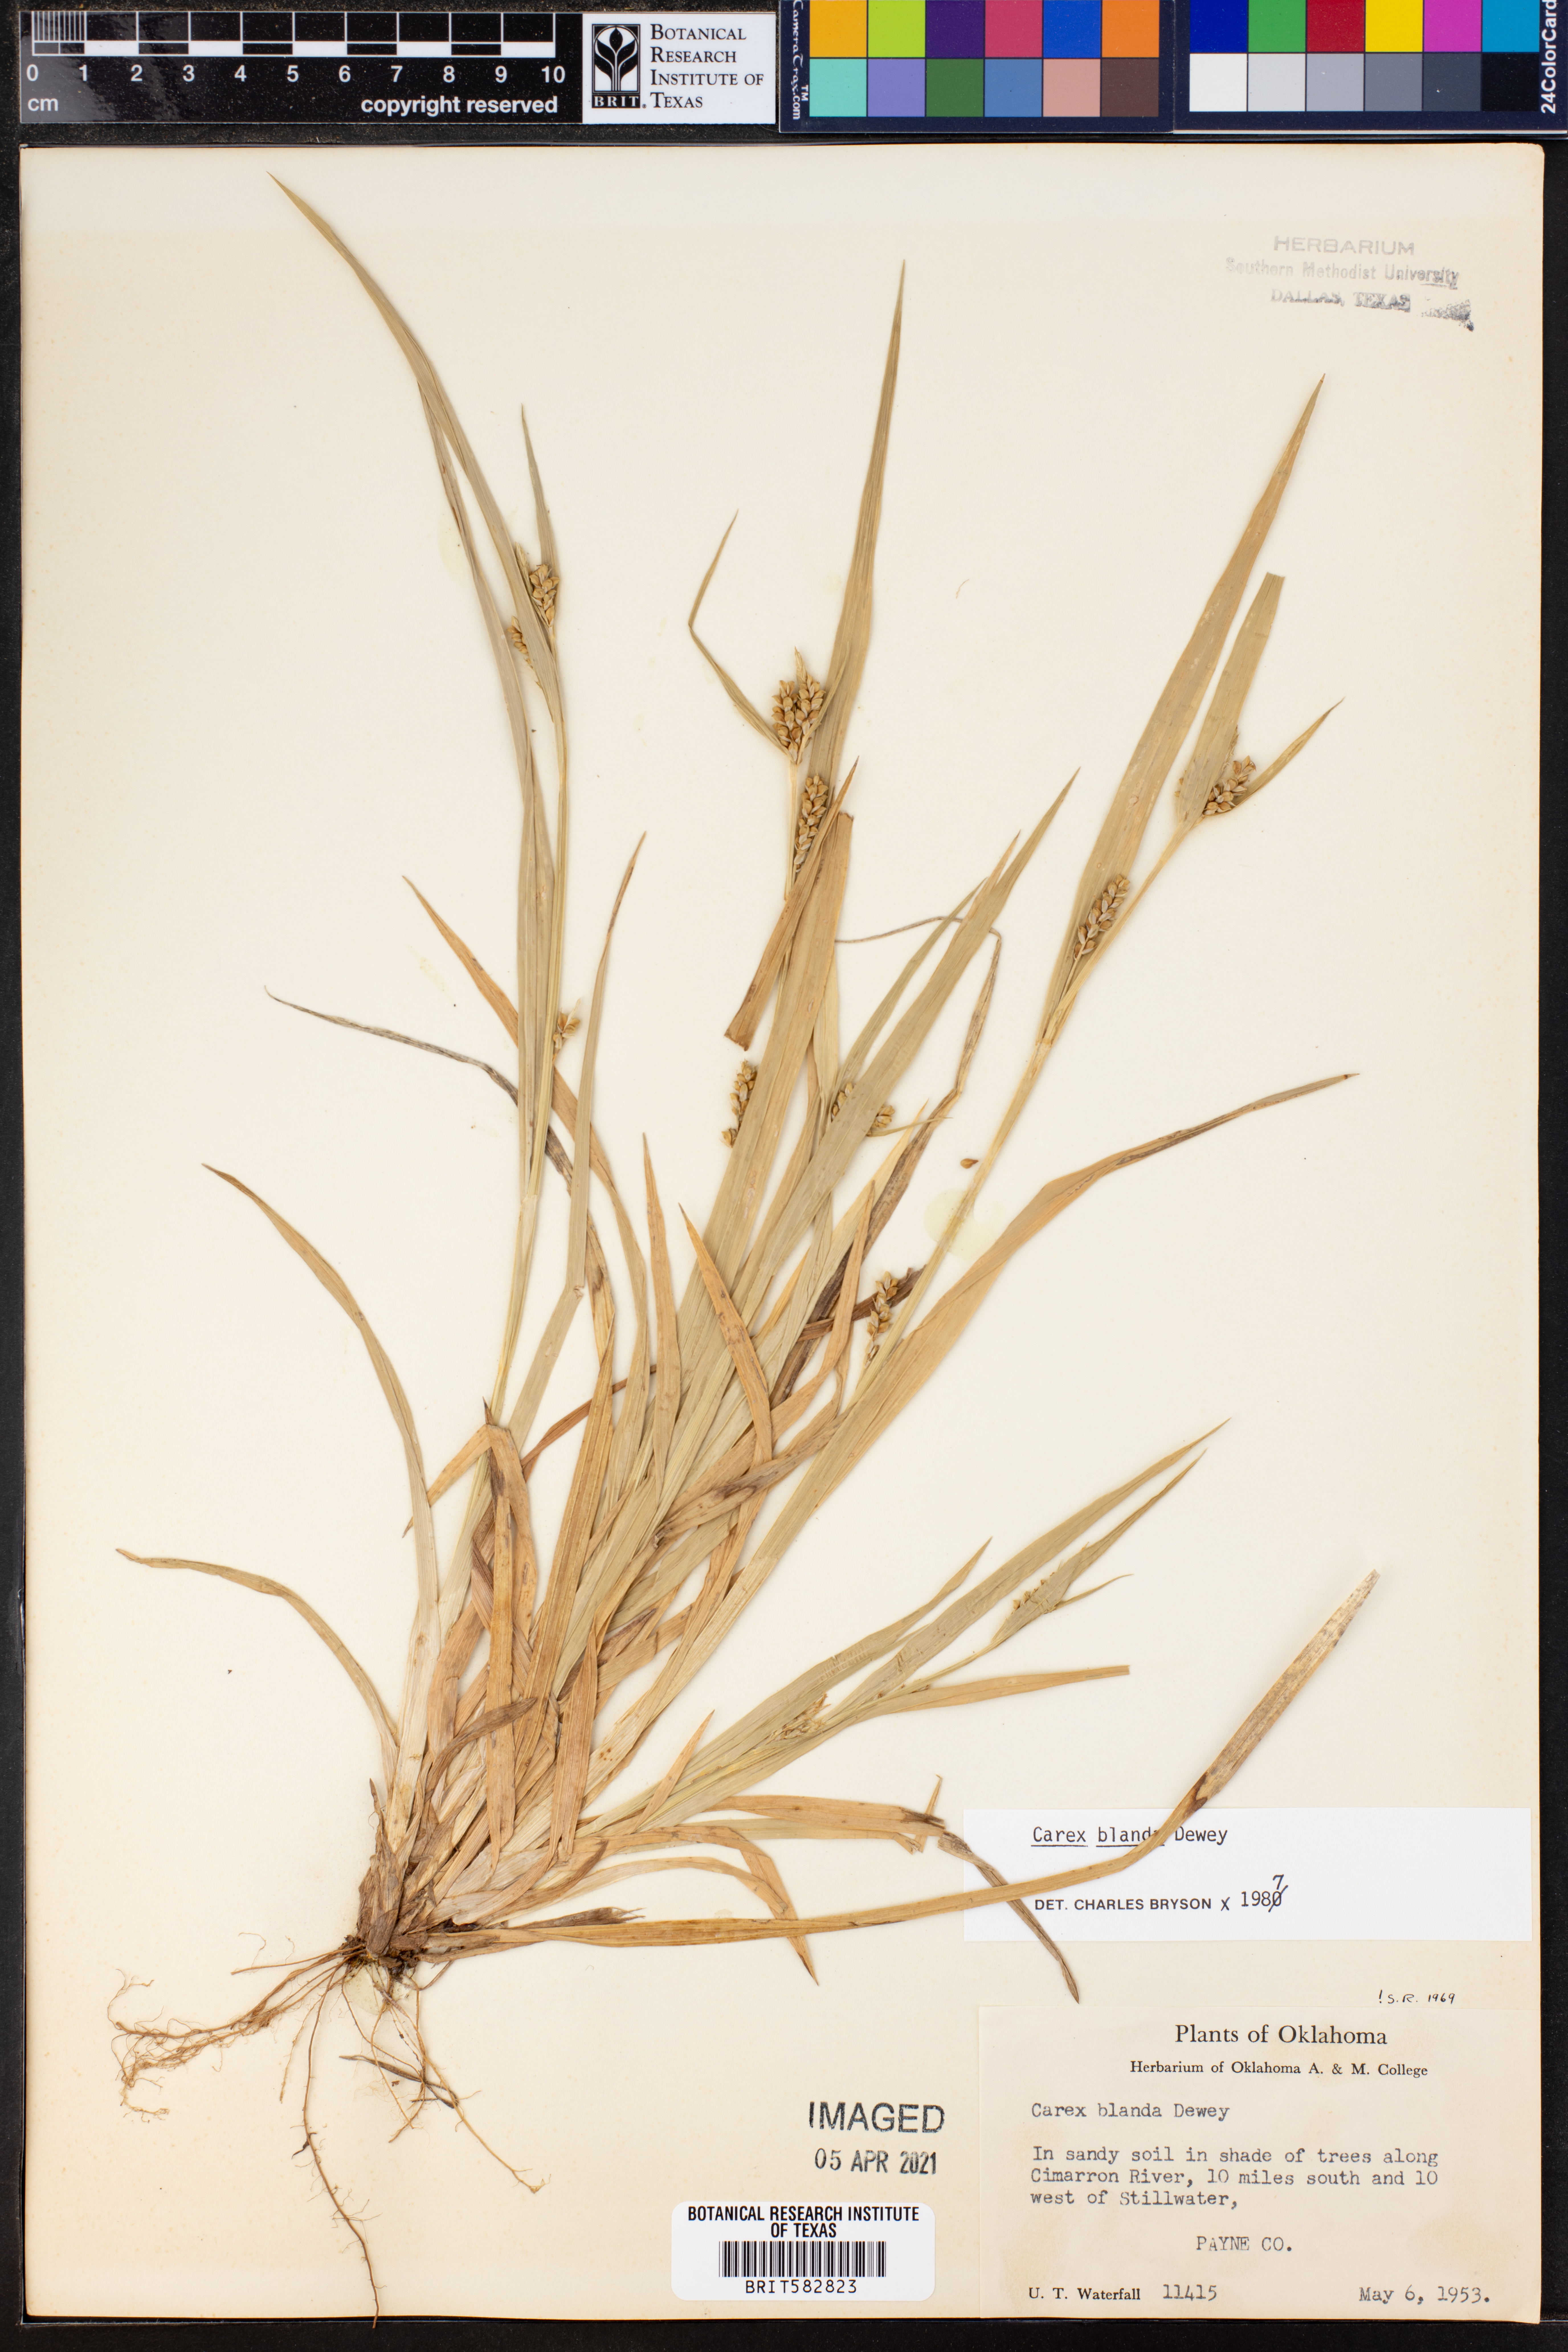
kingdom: Plantae
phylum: Tracheophyta
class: Liliopsida
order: Poales
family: Cyperaceae
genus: Carex
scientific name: Carex blanda
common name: Bland sedge
